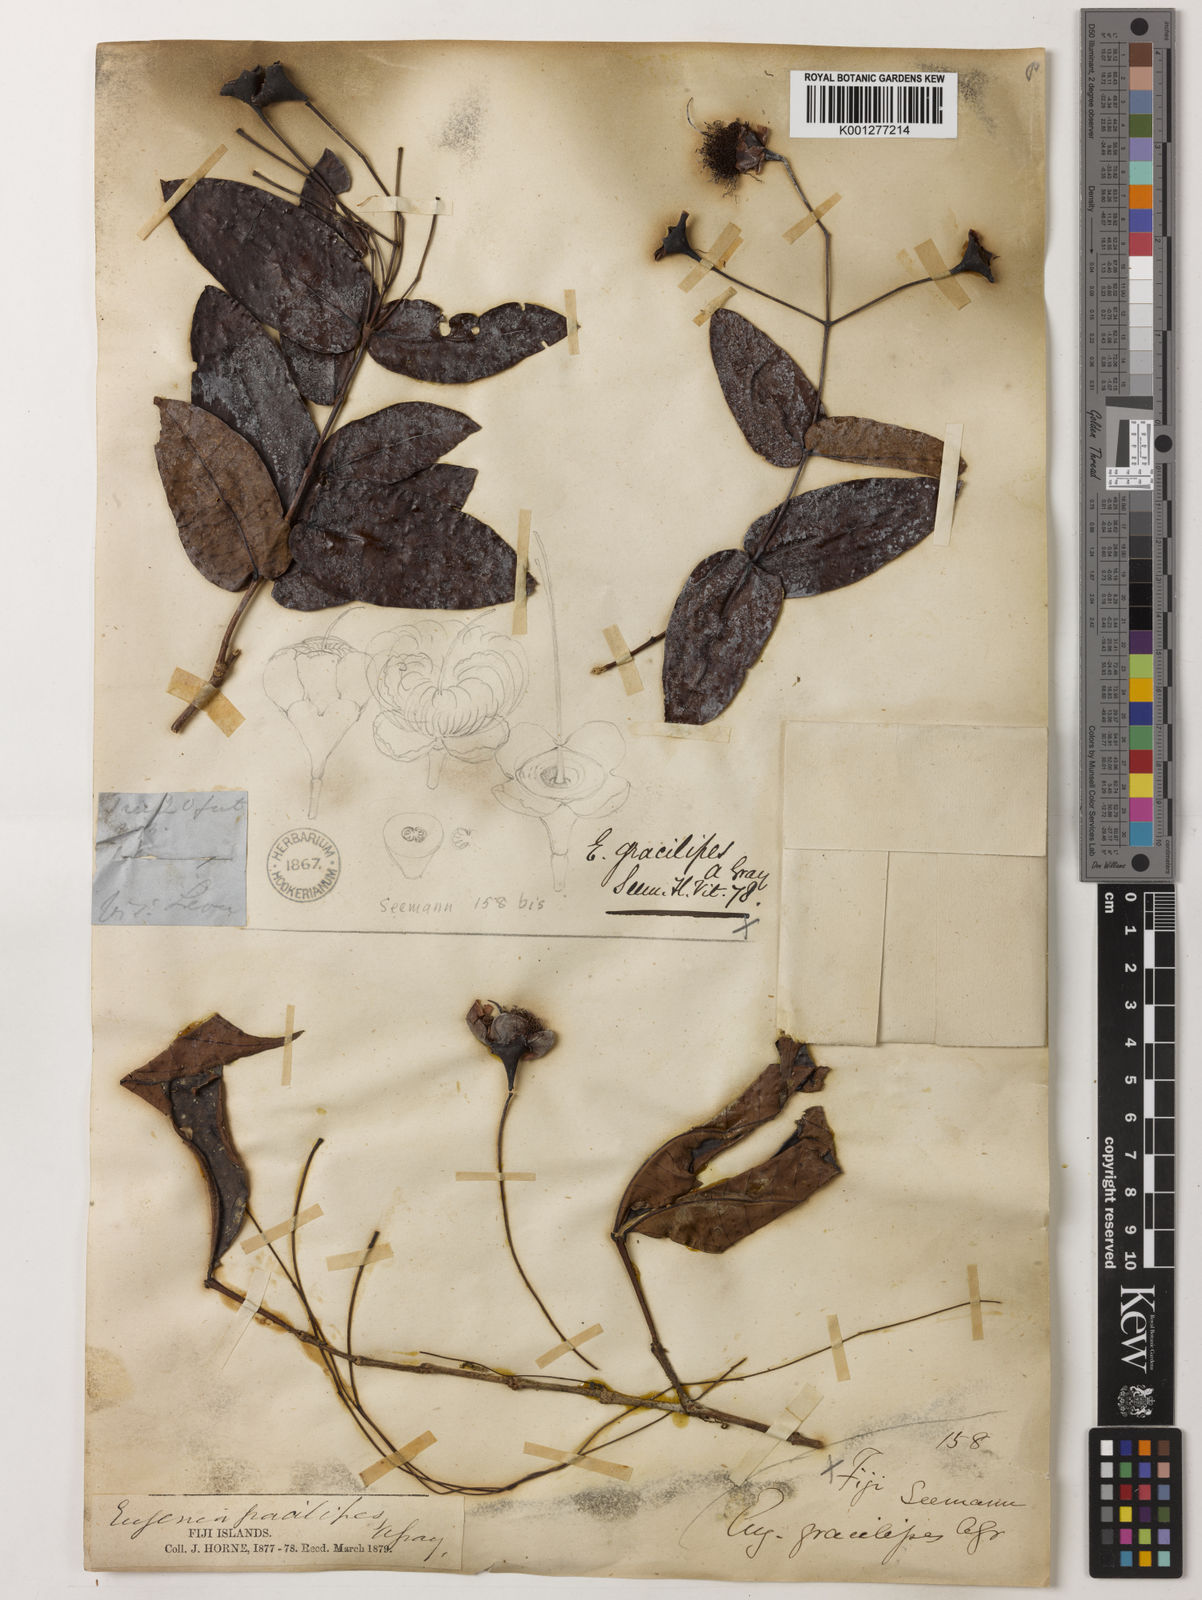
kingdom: Plantae
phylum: Tracheophyta
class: Magnoliopsida
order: Myrtales
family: Myrtaceae
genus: Syzygium
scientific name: Syzygium gracilipes
